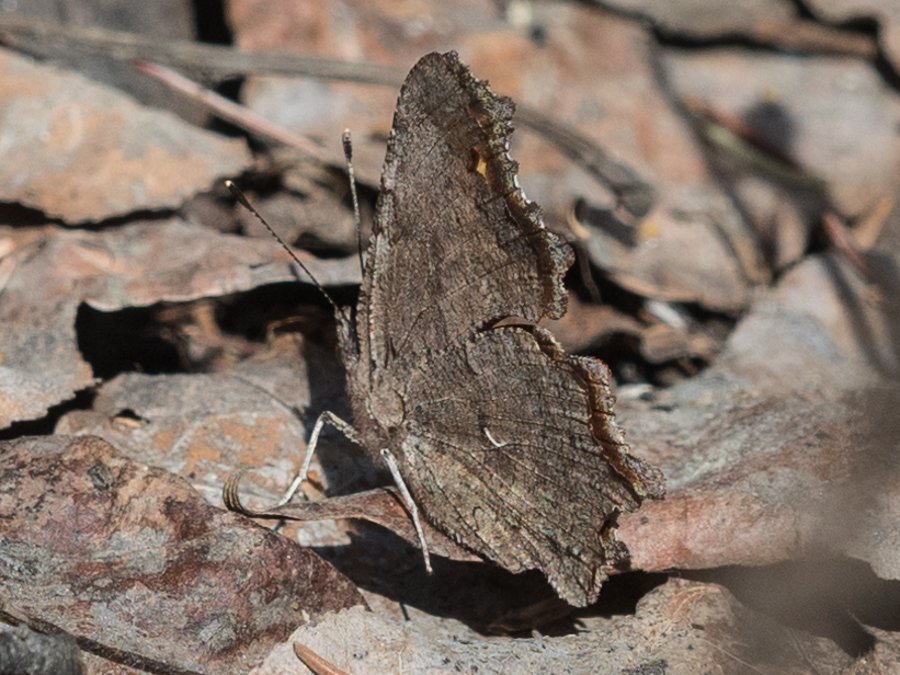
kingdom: Animalia
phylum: Arthropoda
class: Insecta
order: Lepidoptera
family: Nymphalidae
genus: Polygonia
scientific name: Polygonia progne
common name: Gray Comma
